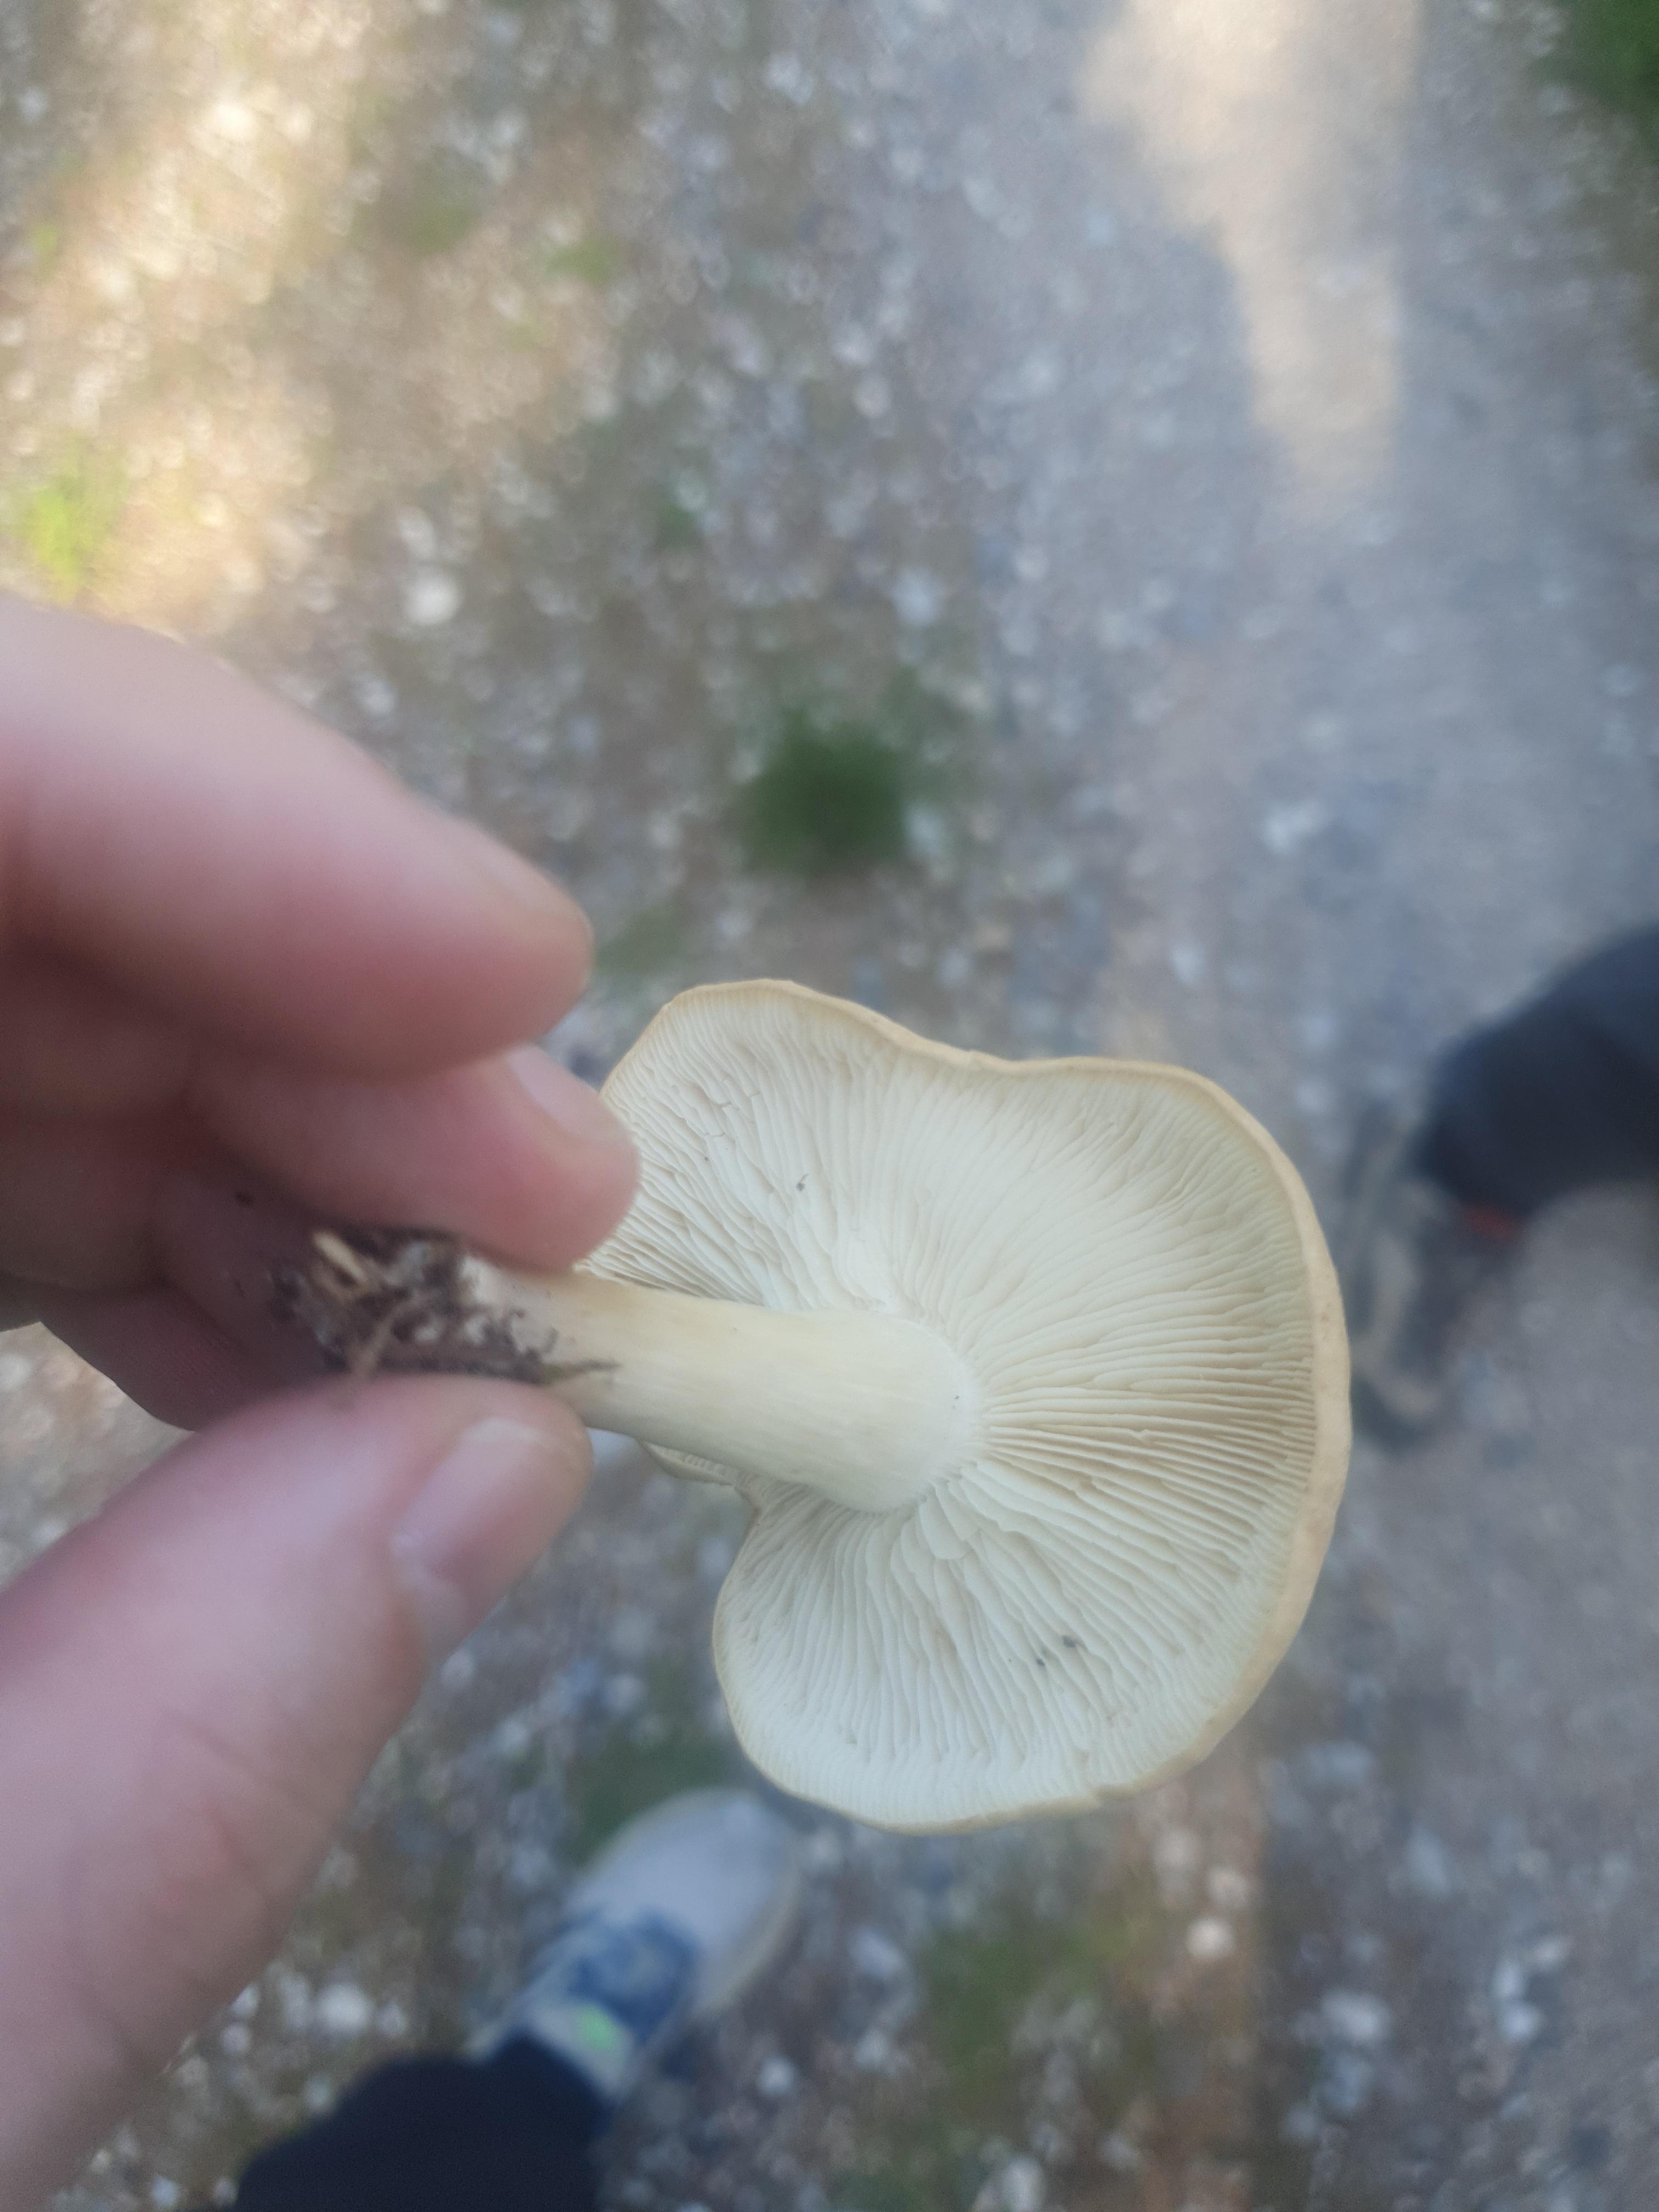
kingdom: Fungi
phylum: Basidiomycota
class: Agaricomycetes
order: Agaricales
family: Tricholomataceae
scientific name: Tricholomataceae
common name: ridderhatfamilien
